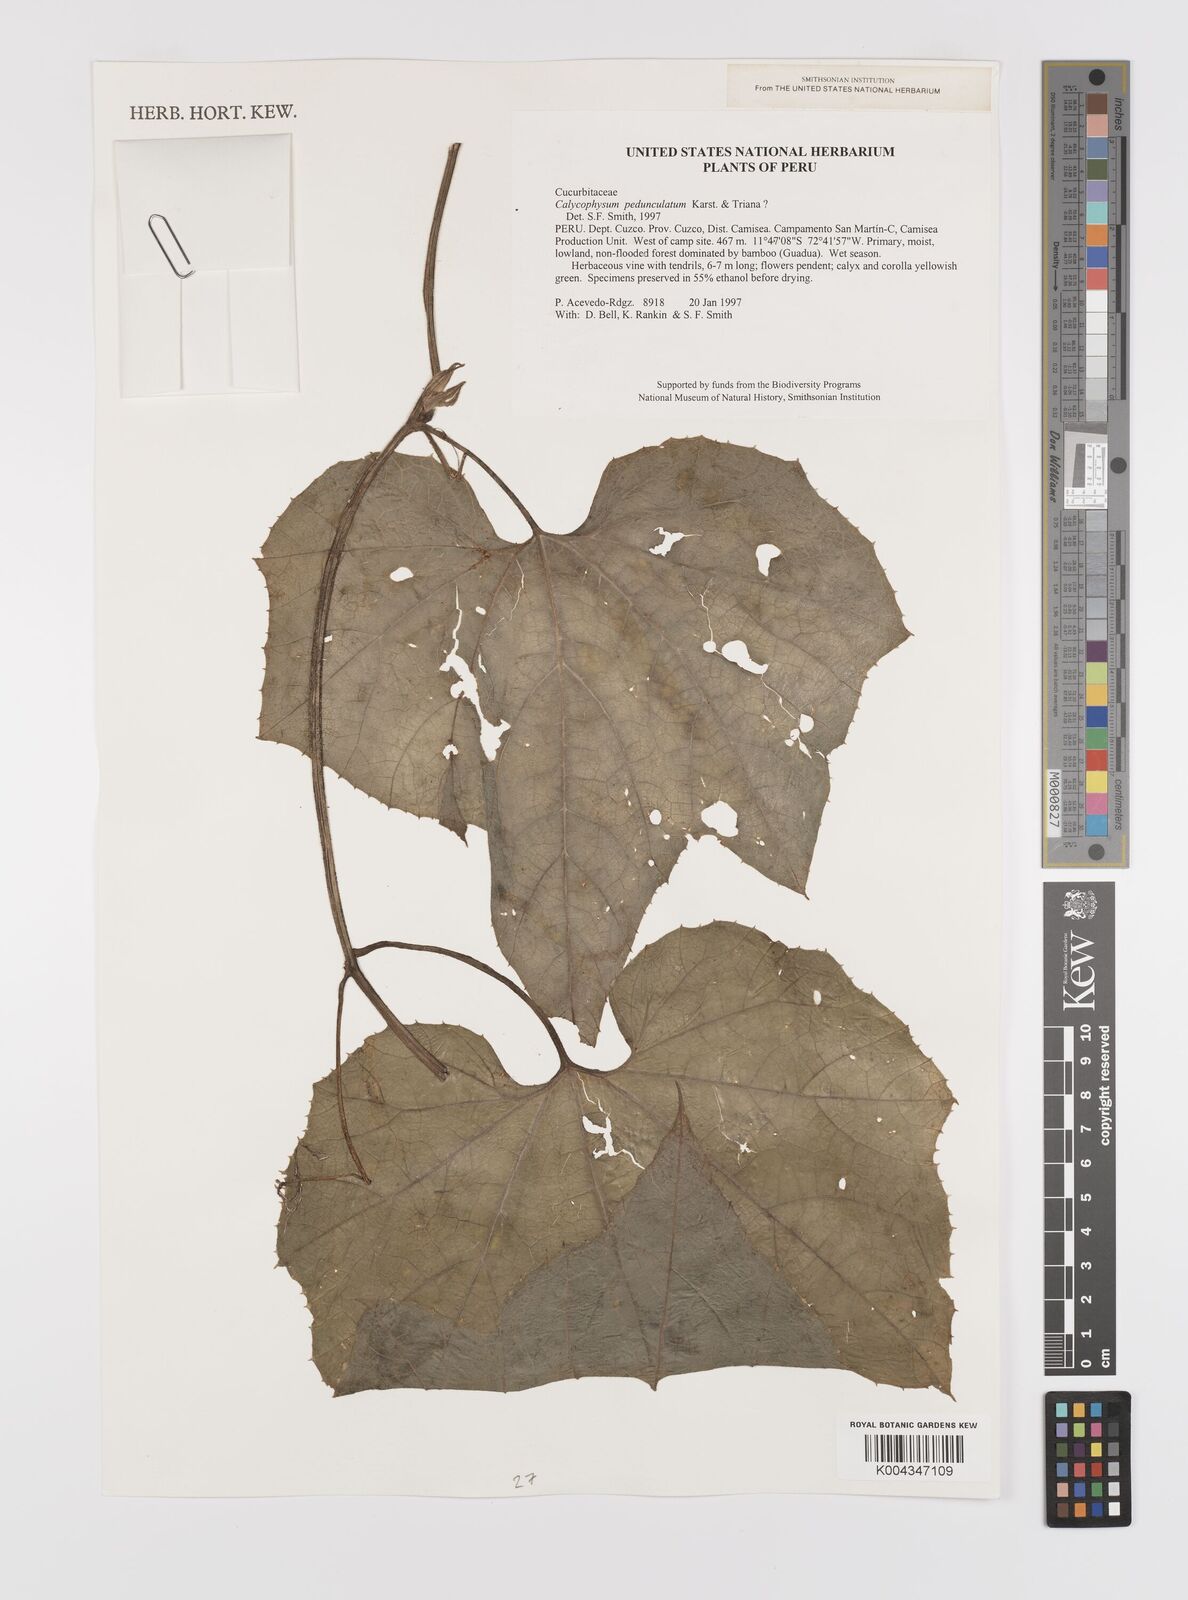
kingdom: Plantae
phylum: Tracheophyta
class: Magnoliopsida
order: Cucurbitales
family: Cucurbitaceae
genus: Calycophysum
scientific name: Calycophysum pedunculatum
